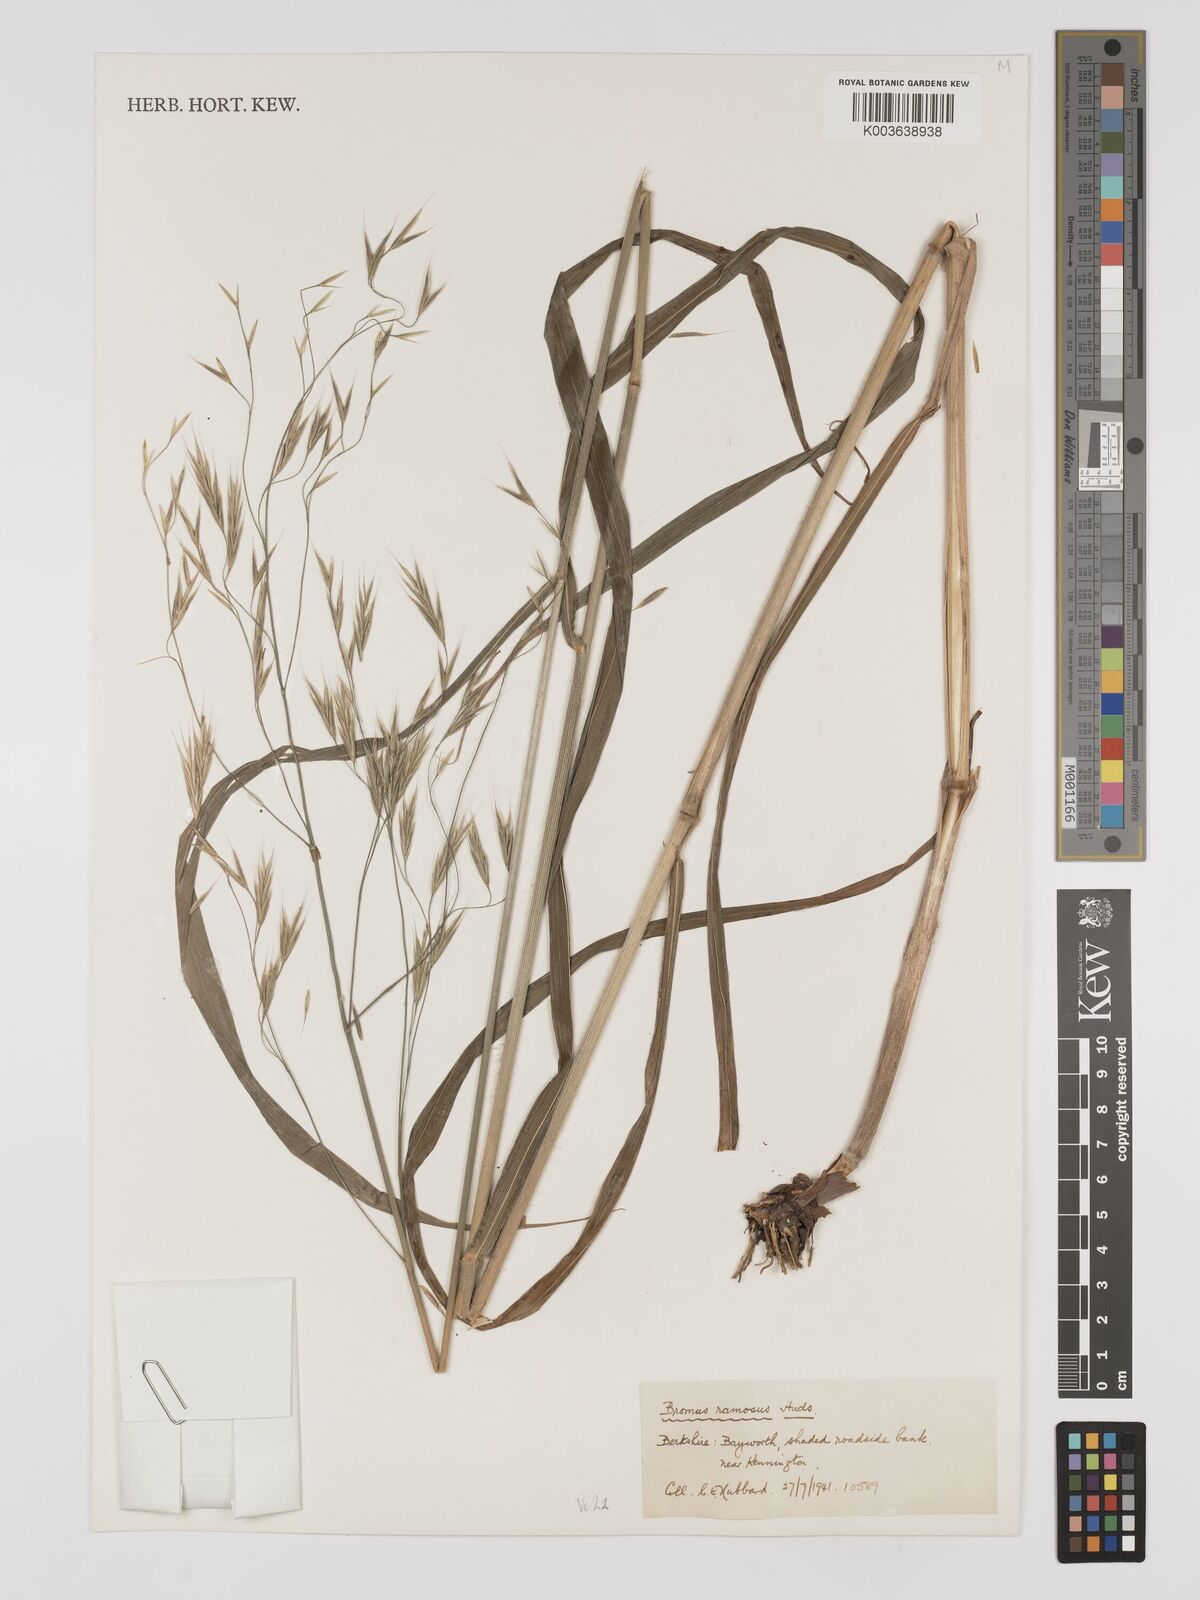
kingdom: Plantae
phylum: Tracheophyta
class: Liliopsida
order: Poales
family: Poaceae
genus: Bromus
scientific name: Bromus ramosus
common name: Hairy brome
